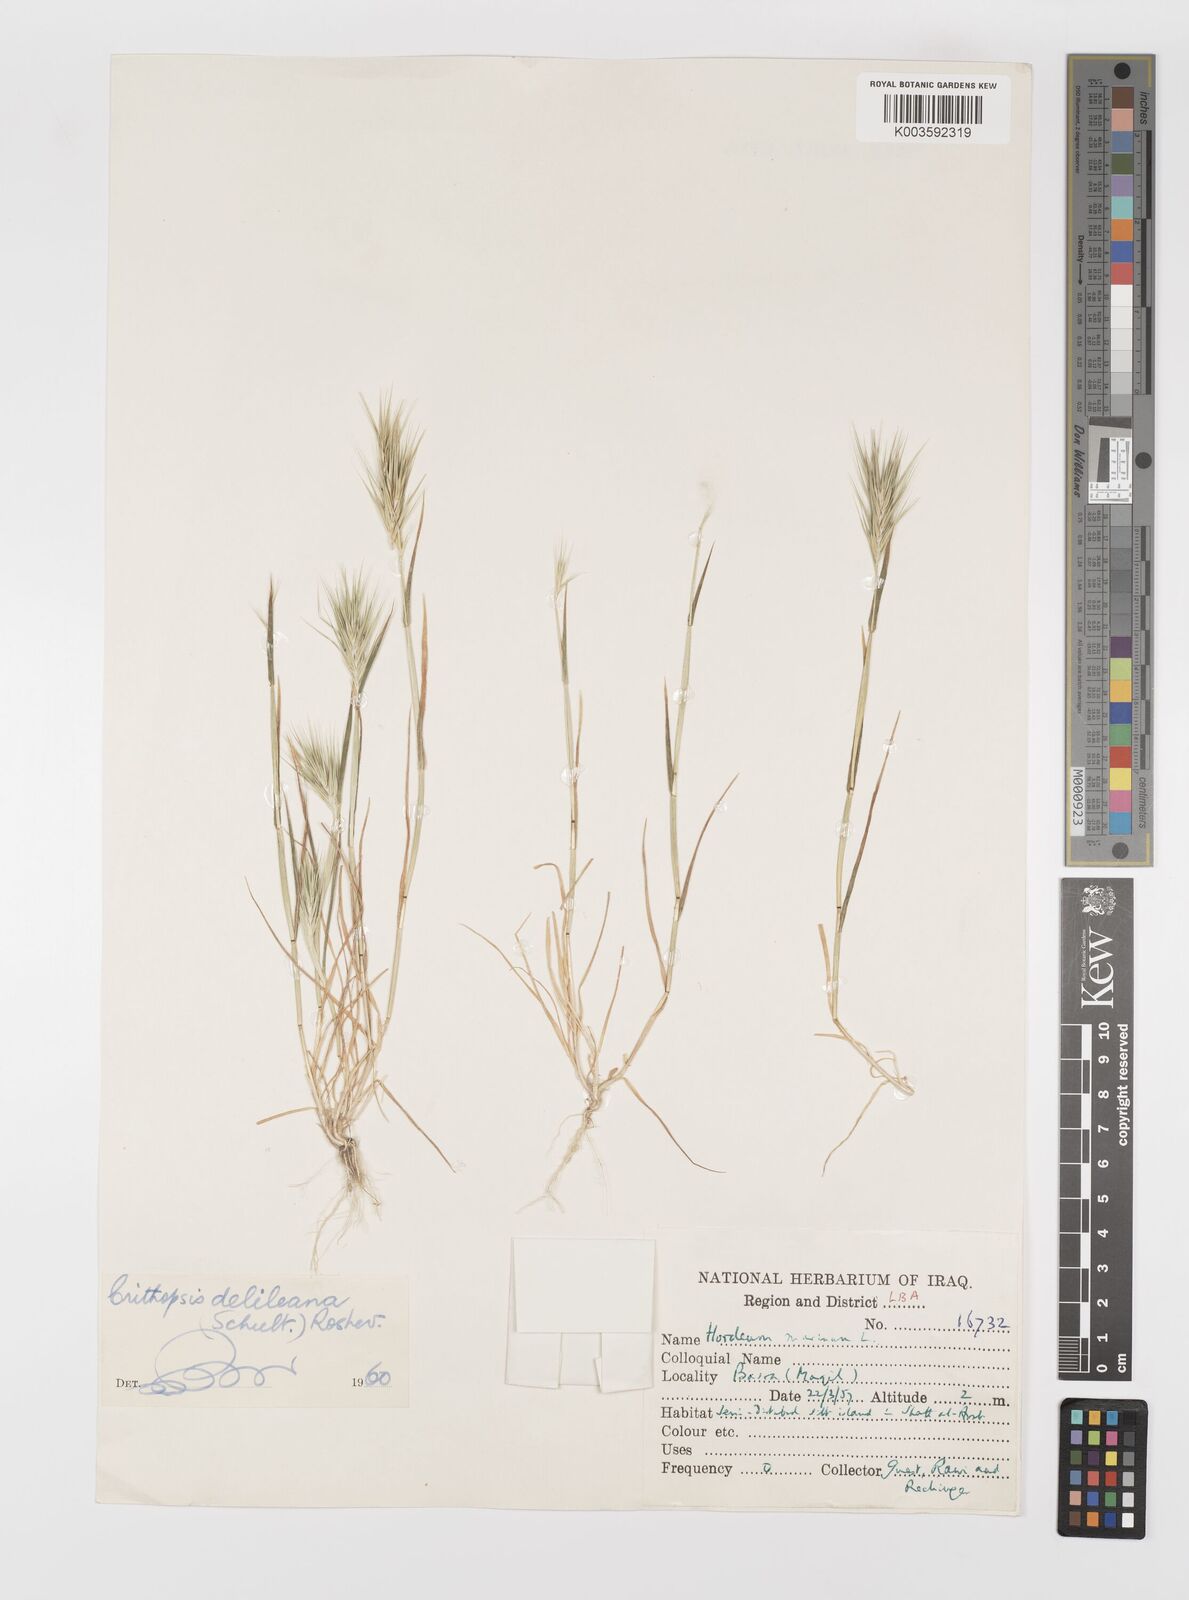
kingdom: Plantae
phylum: Tracheophyta
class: Liliopsida
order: Poales
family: Poaceae
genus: Crithopsis
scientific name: Crithopsis delileana
